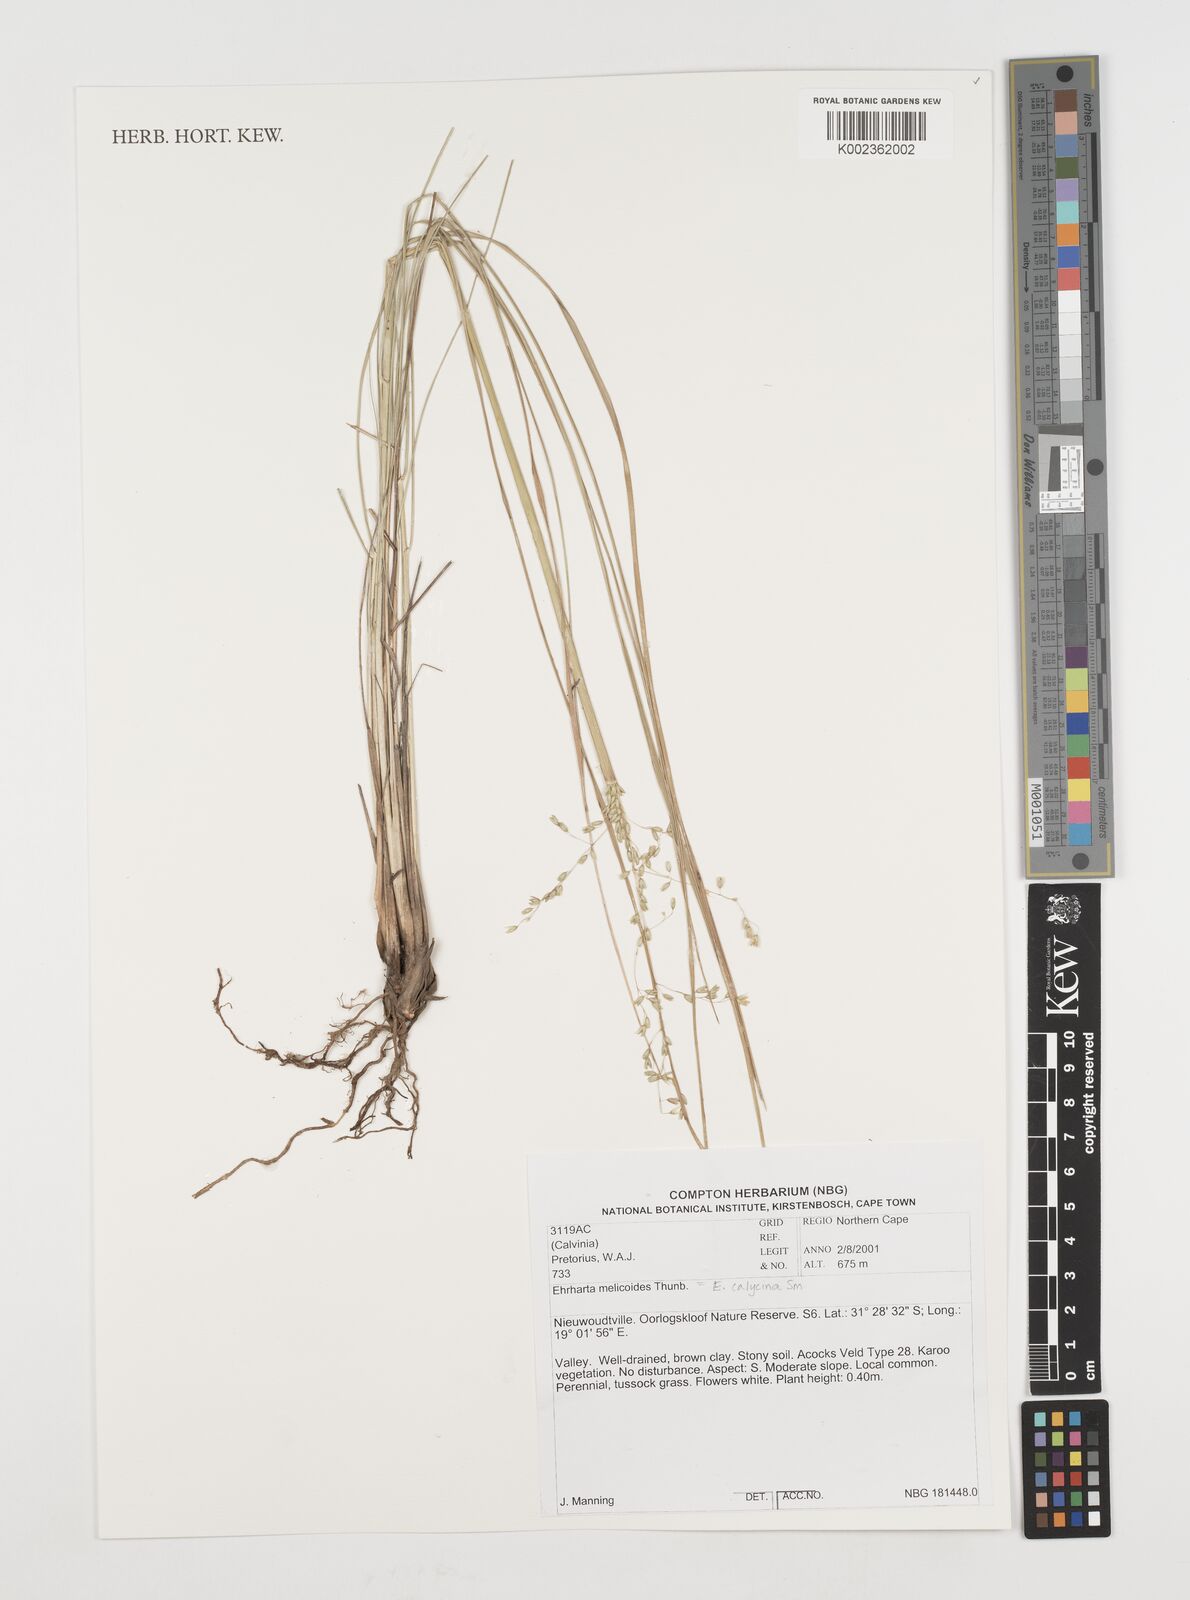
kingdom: Plantae
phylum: Tracheophyta
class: Liliopsida
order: Poales
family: Poaceae
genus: Ehrharta
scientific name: Ehrharta calycina
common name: Perennial veldtgrass
